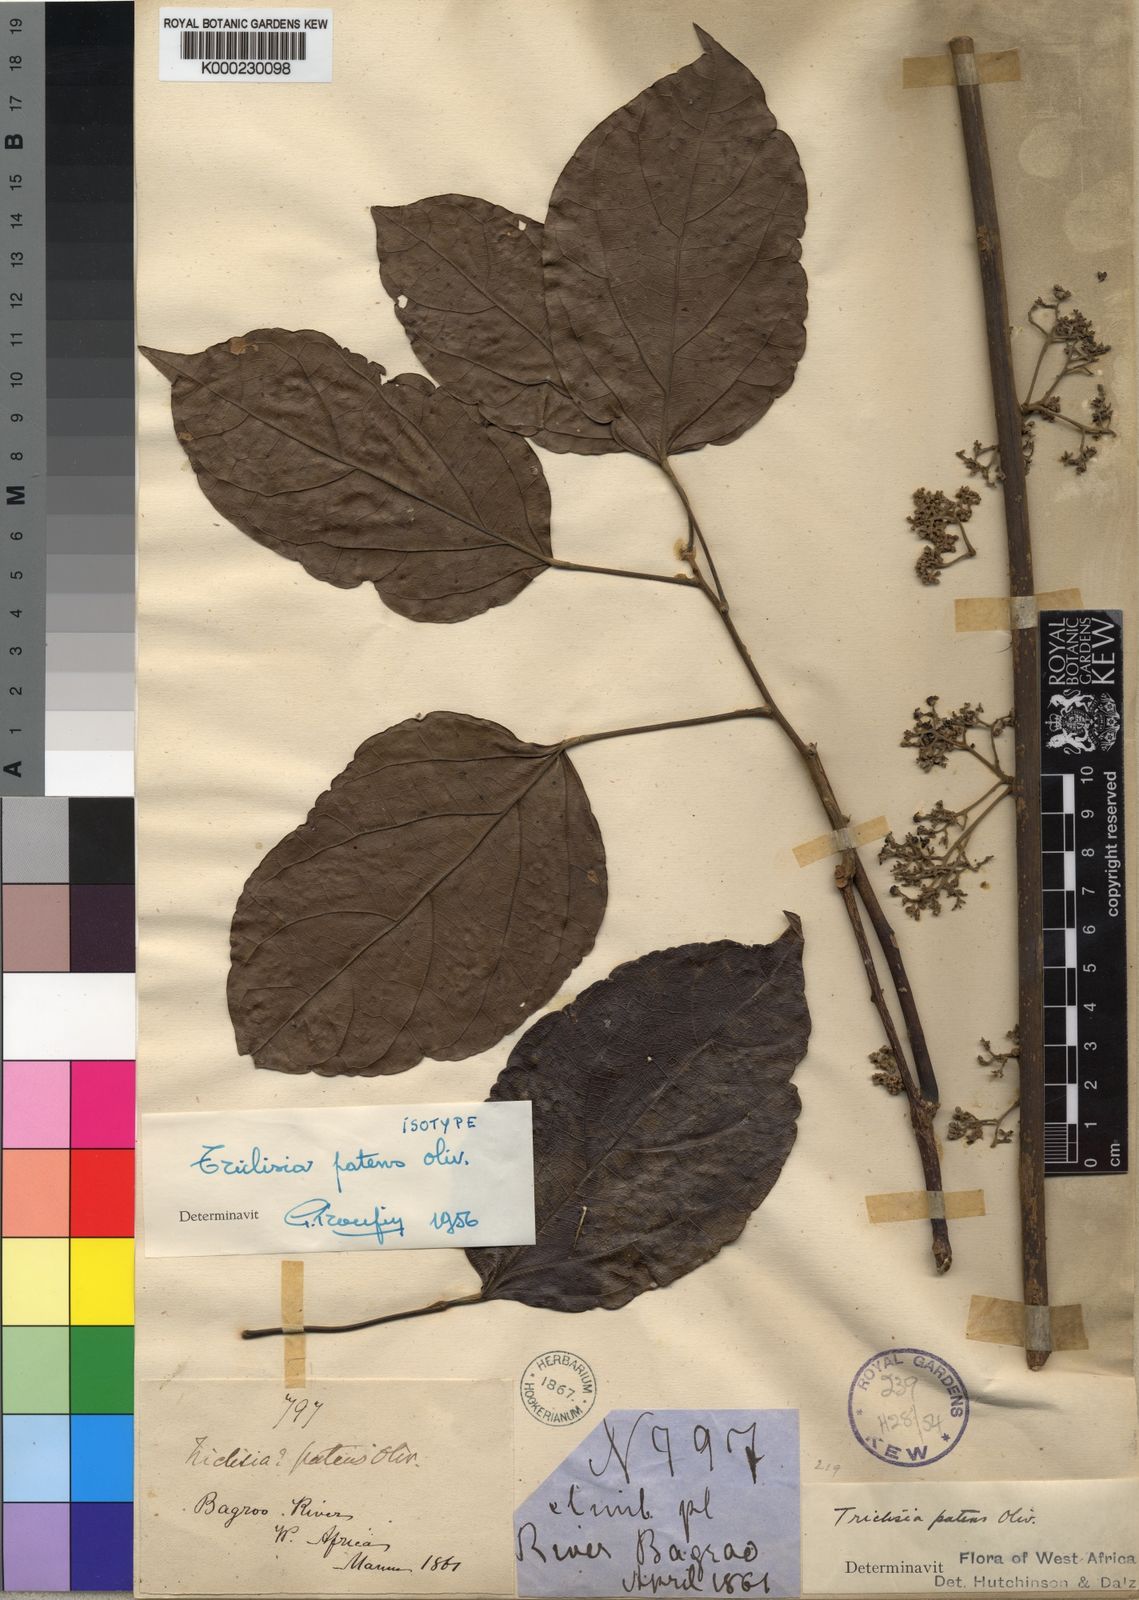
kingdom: Plantae
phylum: Tracheophyta
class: Magnoliopsida
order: Ranunculales
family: Menispermaceae
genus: Triclisia
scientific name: Triclisia patens
